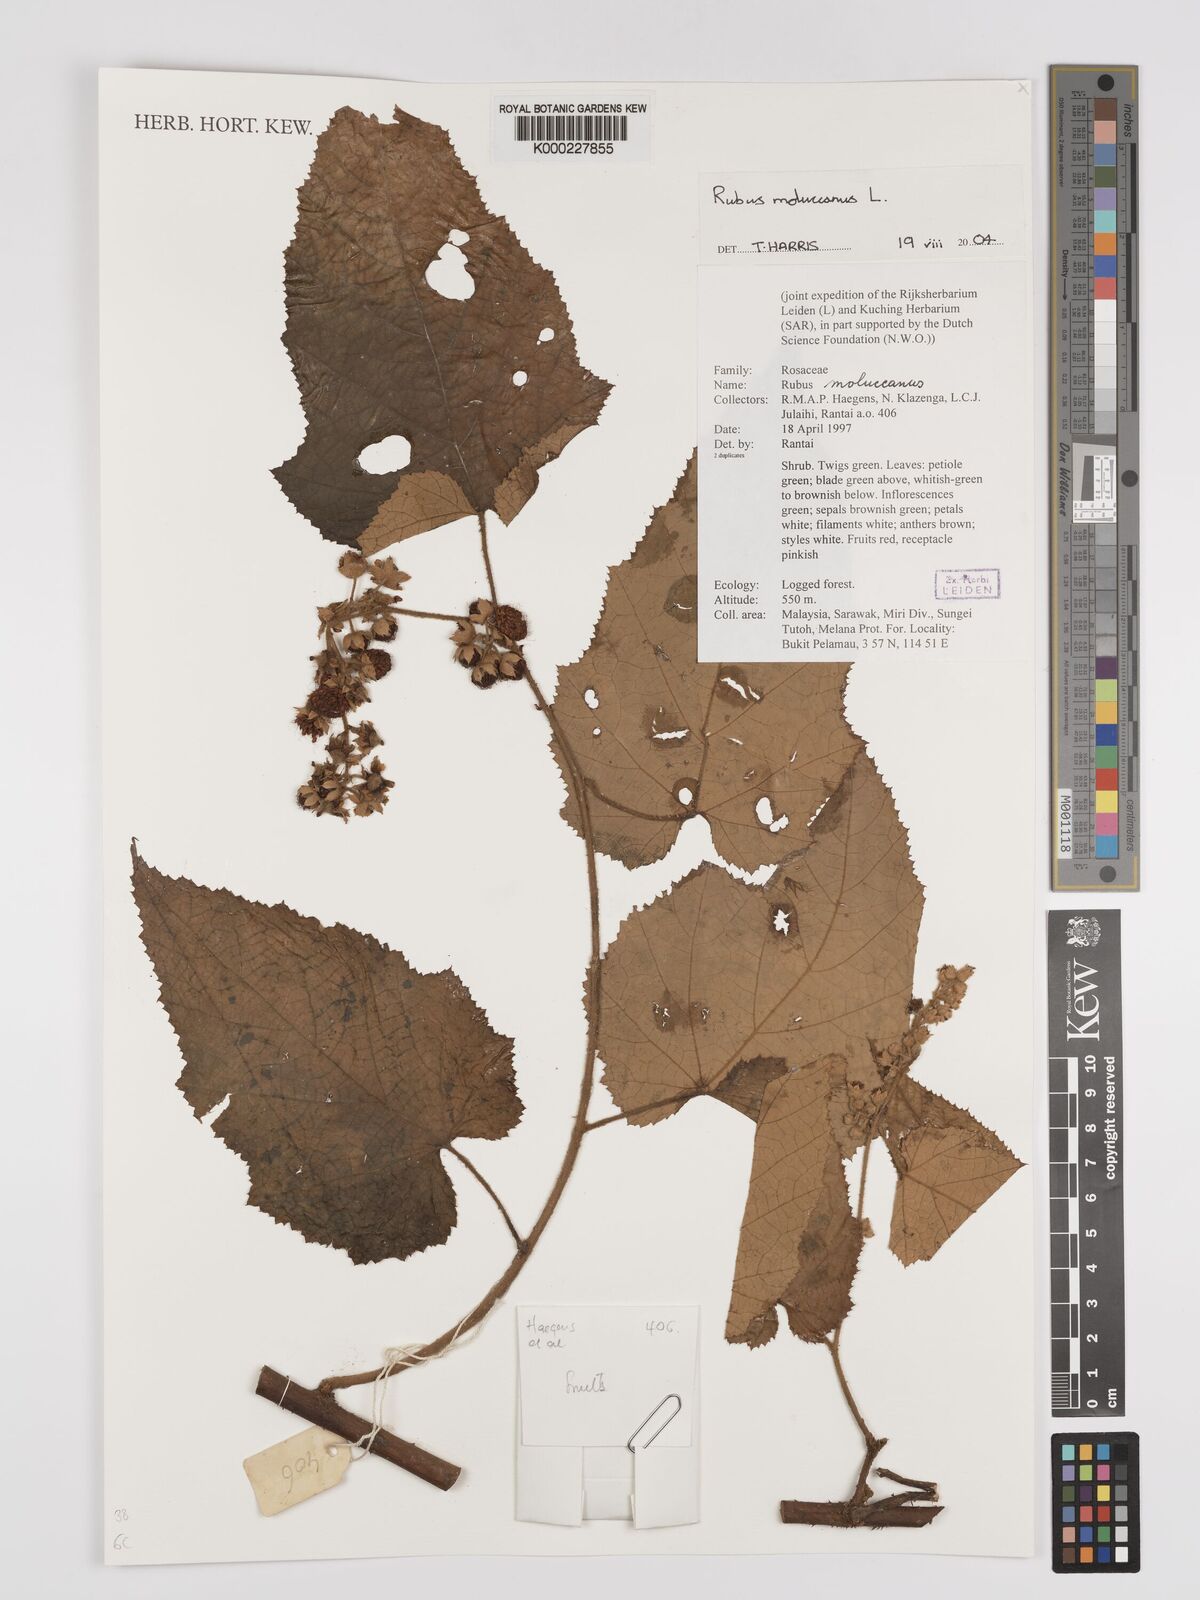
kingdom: Plantae
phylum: Tracheophyta
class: Magnoliopsida
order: Rosales
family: Rosaceae
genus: Rubus
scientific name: Rubus moluccanus
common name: Wild raspberry
